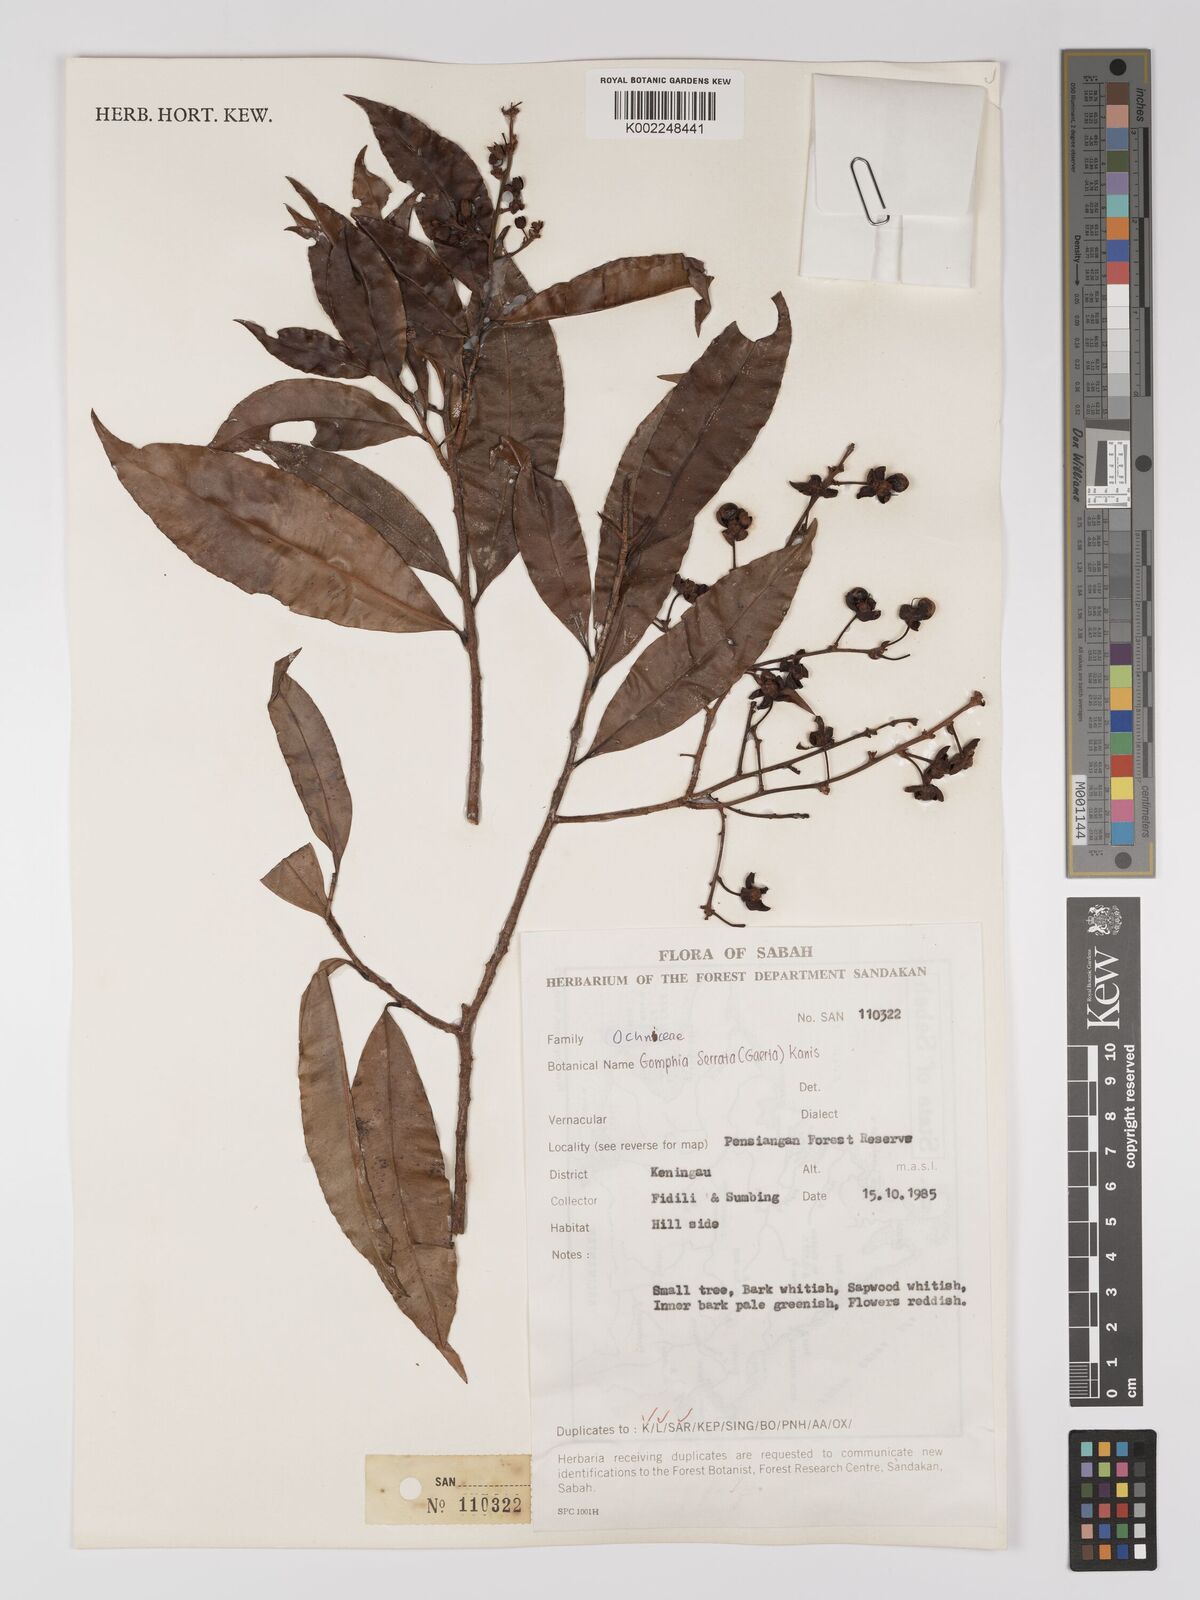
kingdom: Plantae
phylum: Tracheophyta
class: Magnoliopsida
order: Malpighiales
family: Ochnaceae
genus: Gomphia
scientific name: Gomphia serrata
